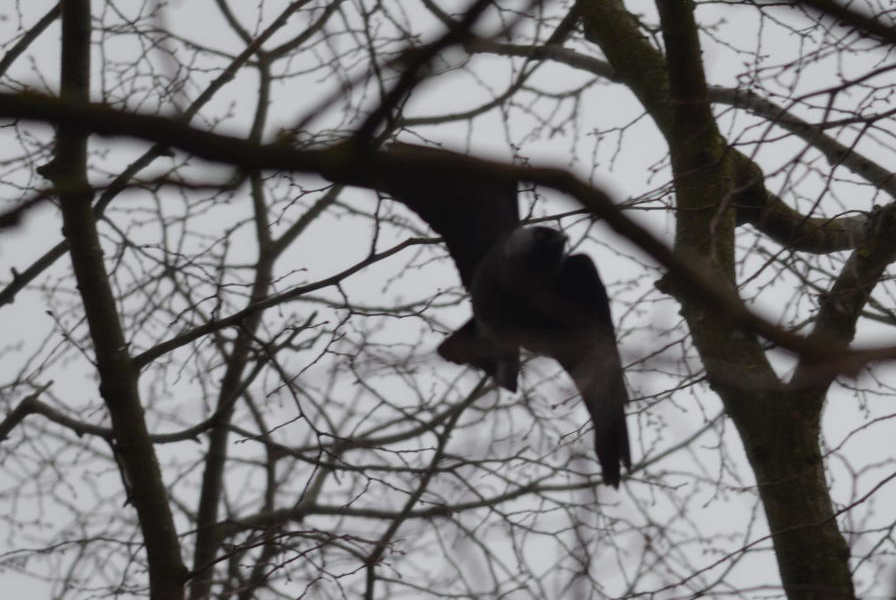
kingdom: Animalia
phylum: Chordata
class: Aves
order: Passeriformes
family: Corvidae
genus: Coloeus
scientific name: Coloeus monedula
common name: Western jackdaw
